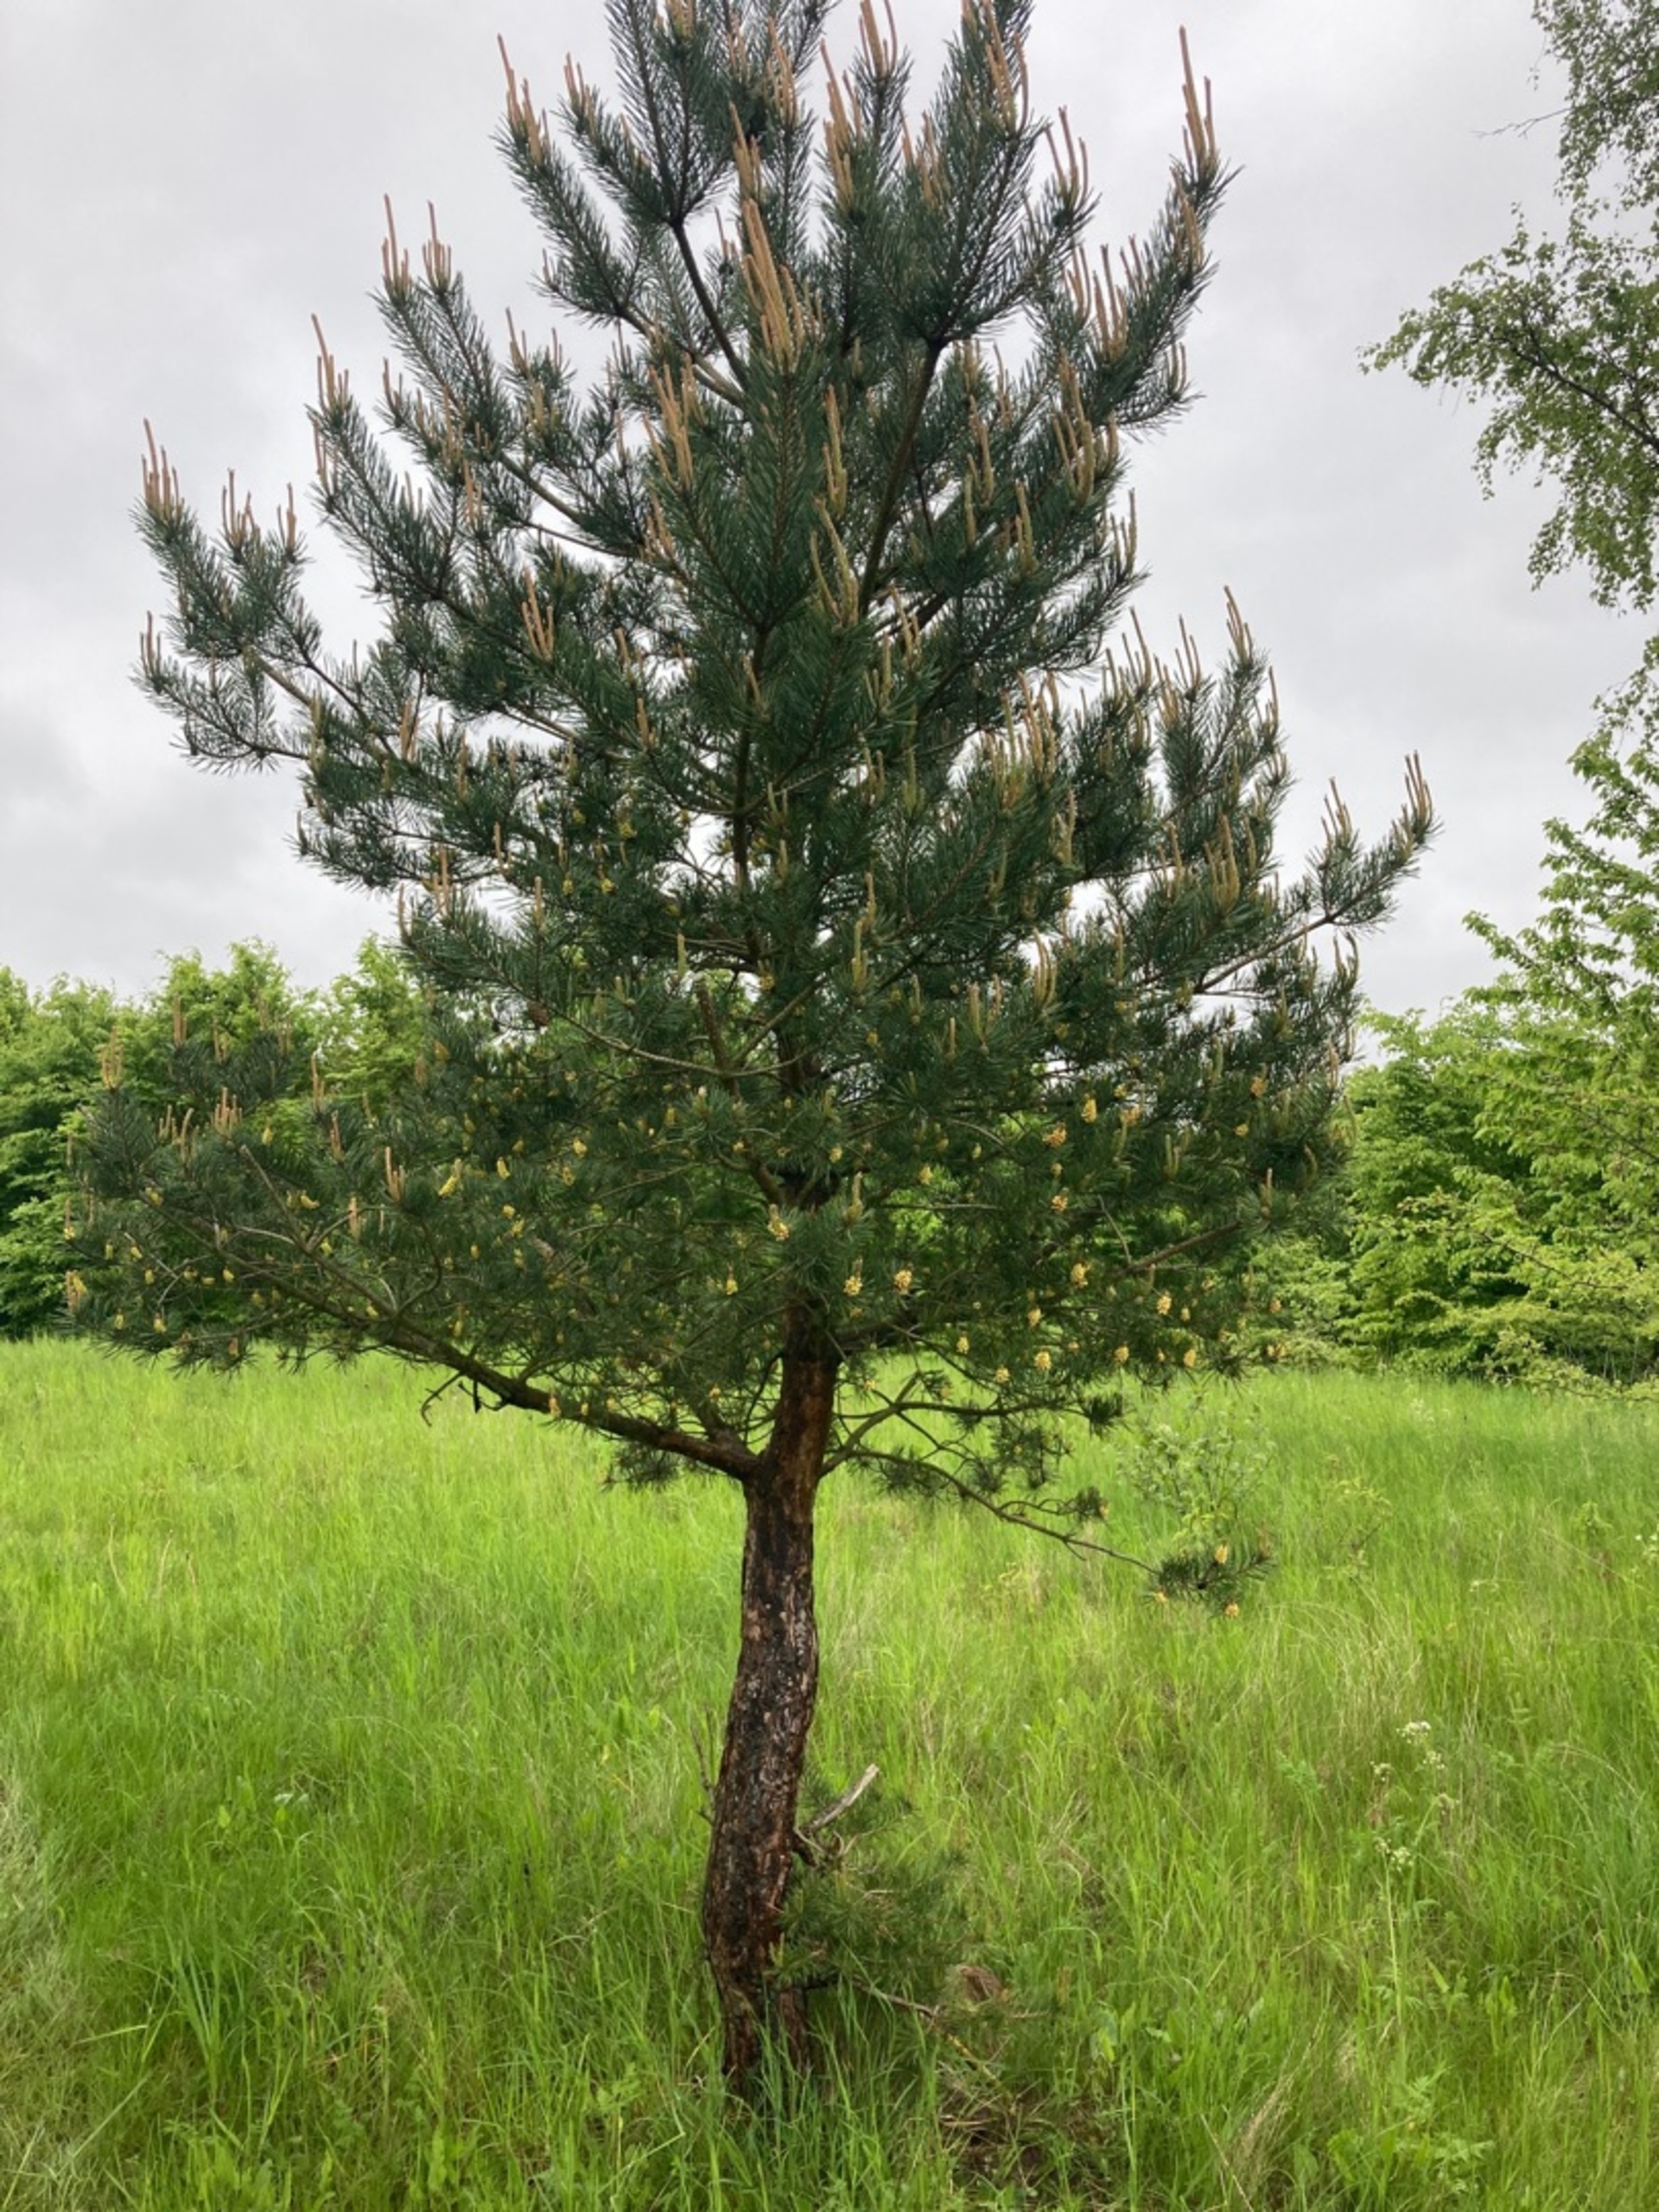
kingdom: Plantae
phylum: Tracheophyta
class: Pinopsida
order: Pinales
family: Pinaceae
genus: Pinus
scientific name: Pinus sylvestris
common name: Skov-fyr
